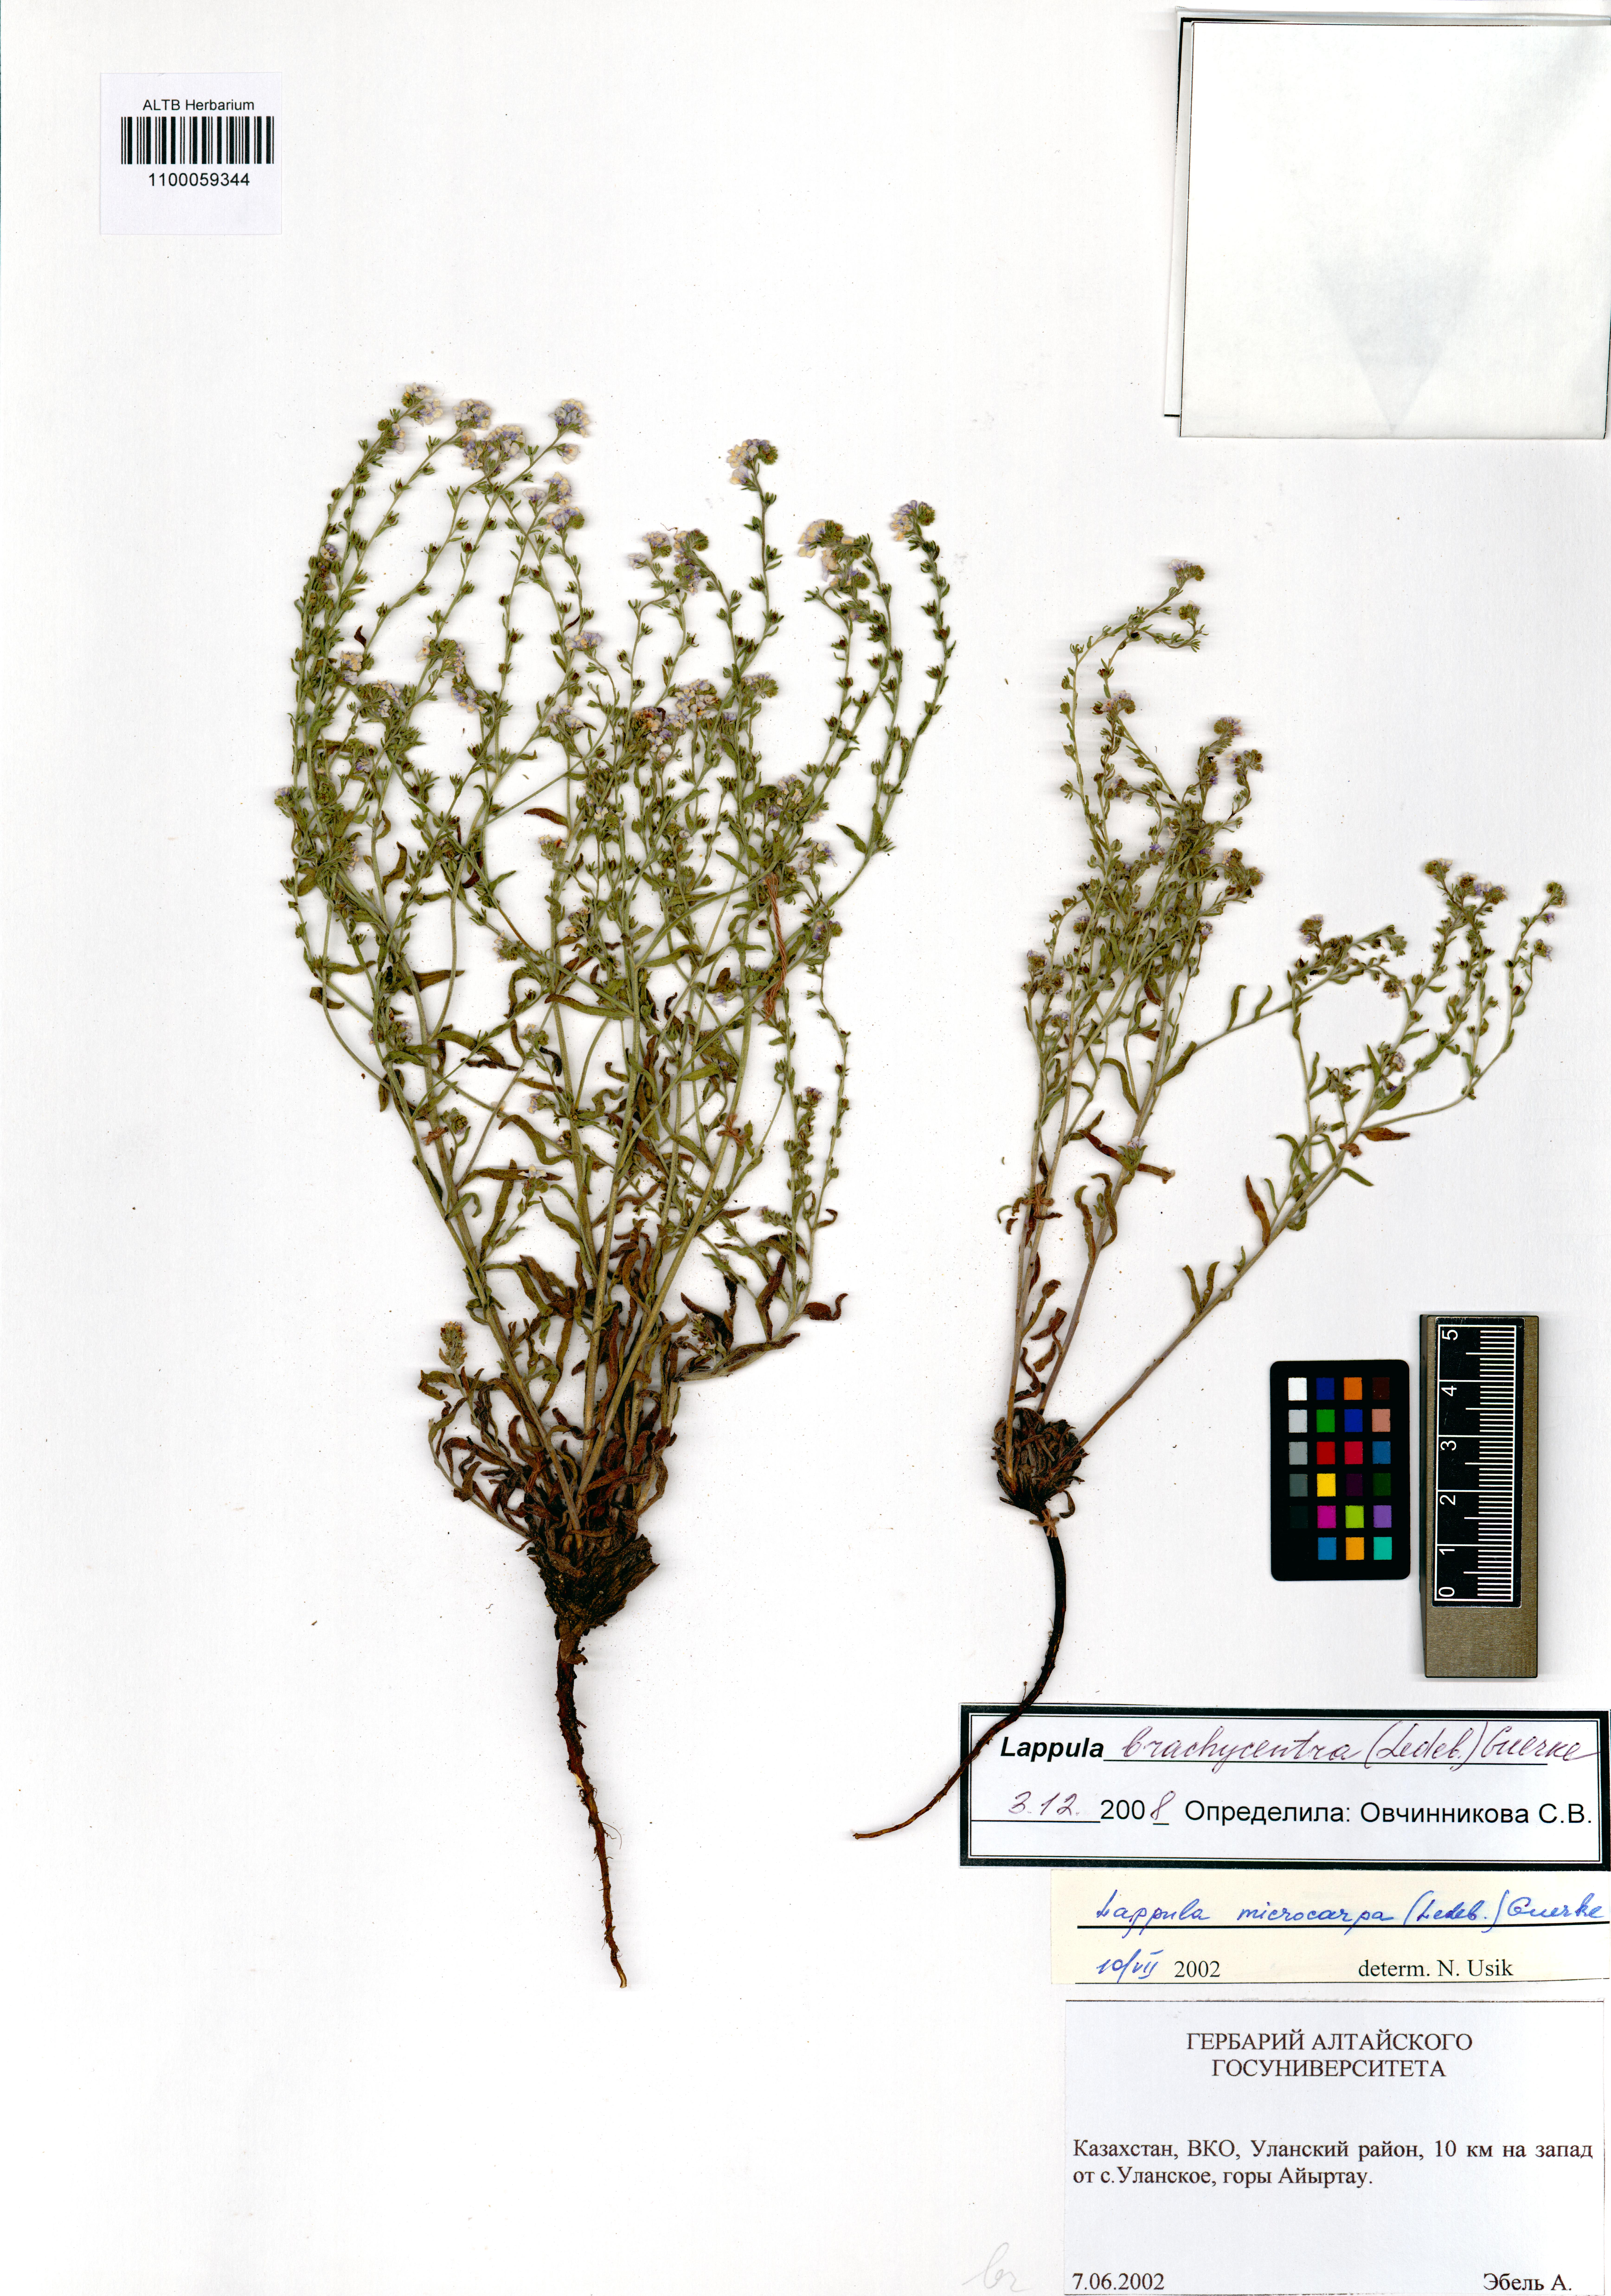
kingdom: Plantae
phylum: Tracheophyta
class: Magnoliopsida
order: Boraginales
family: Boraginaceae
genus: Lappula
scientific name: Lappula brachycentra
